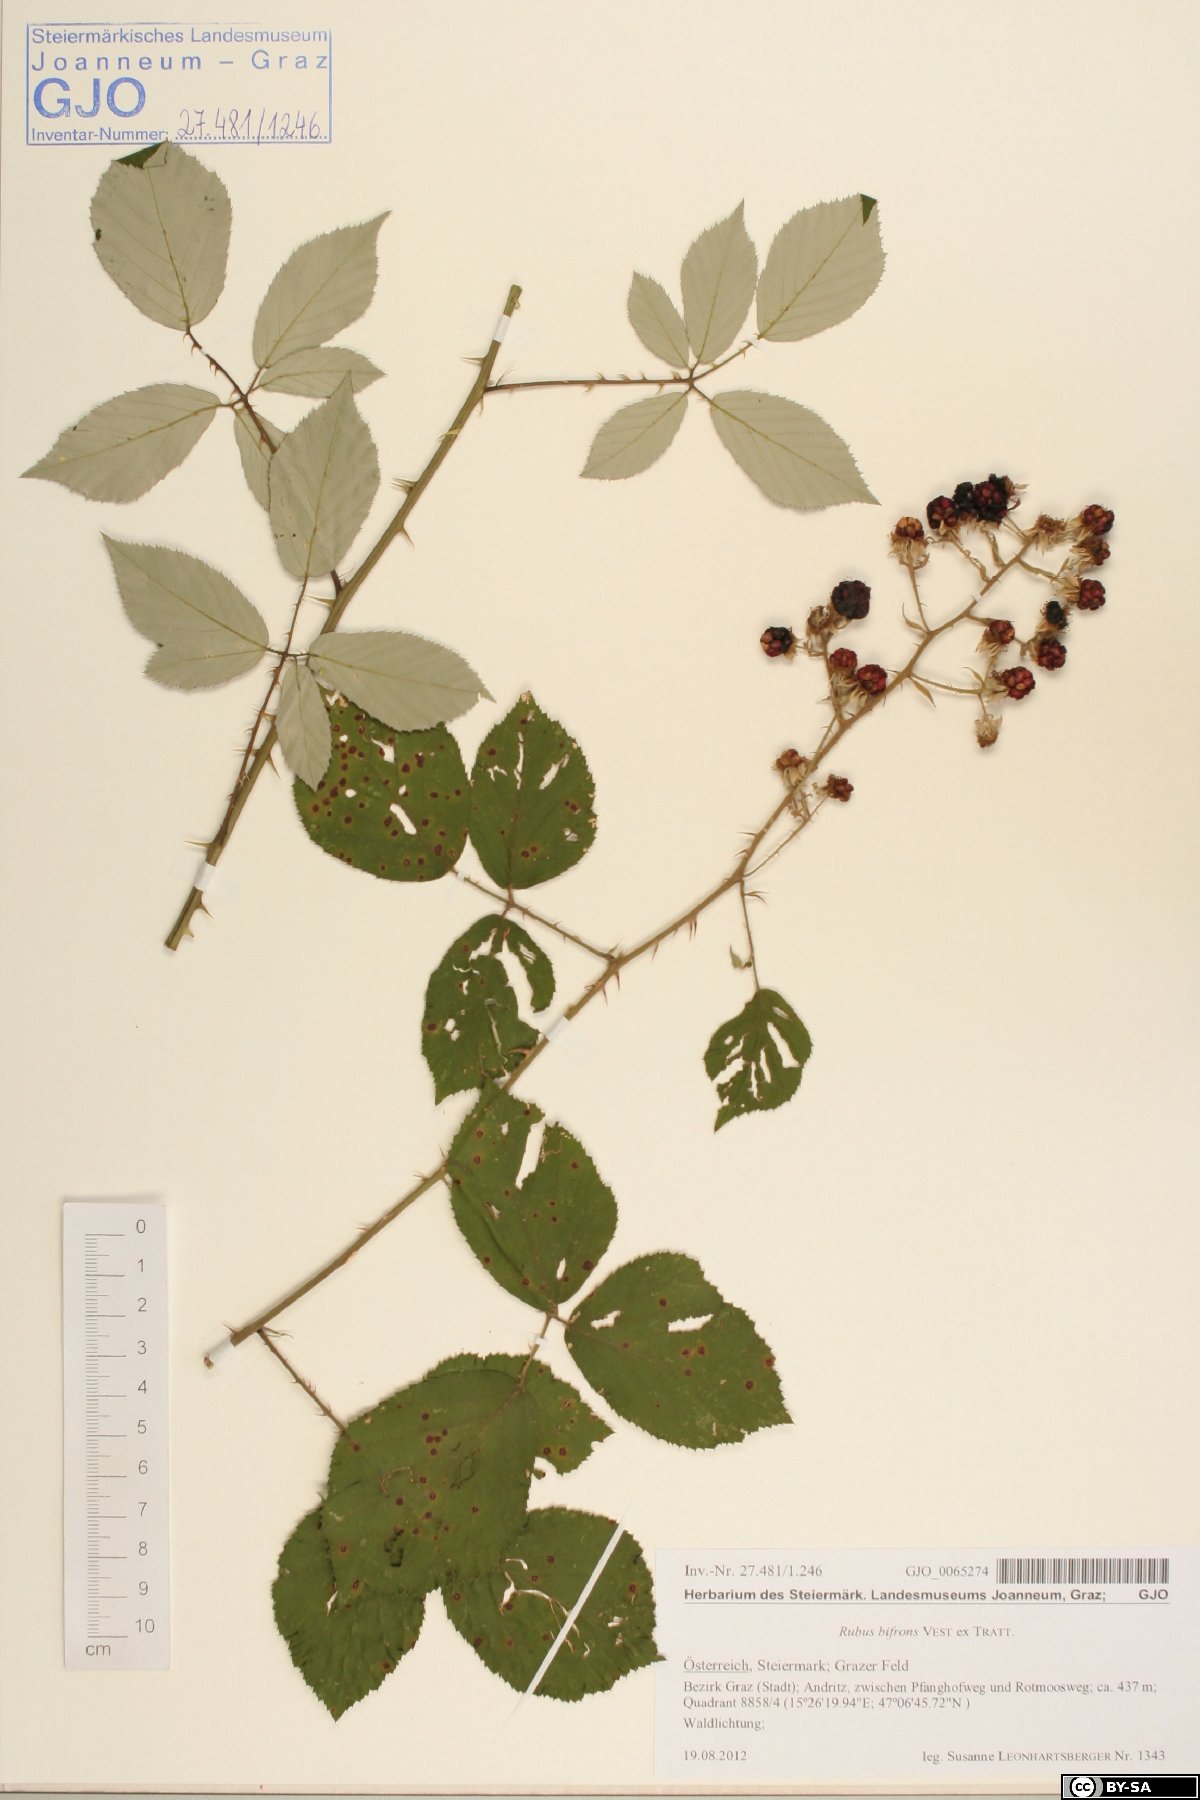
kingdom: Plantae
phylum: Tracheophyta
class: Magnoliopsida
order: Rosales
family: Rosaceae
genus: Rubus
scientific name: Rubus bifrons
